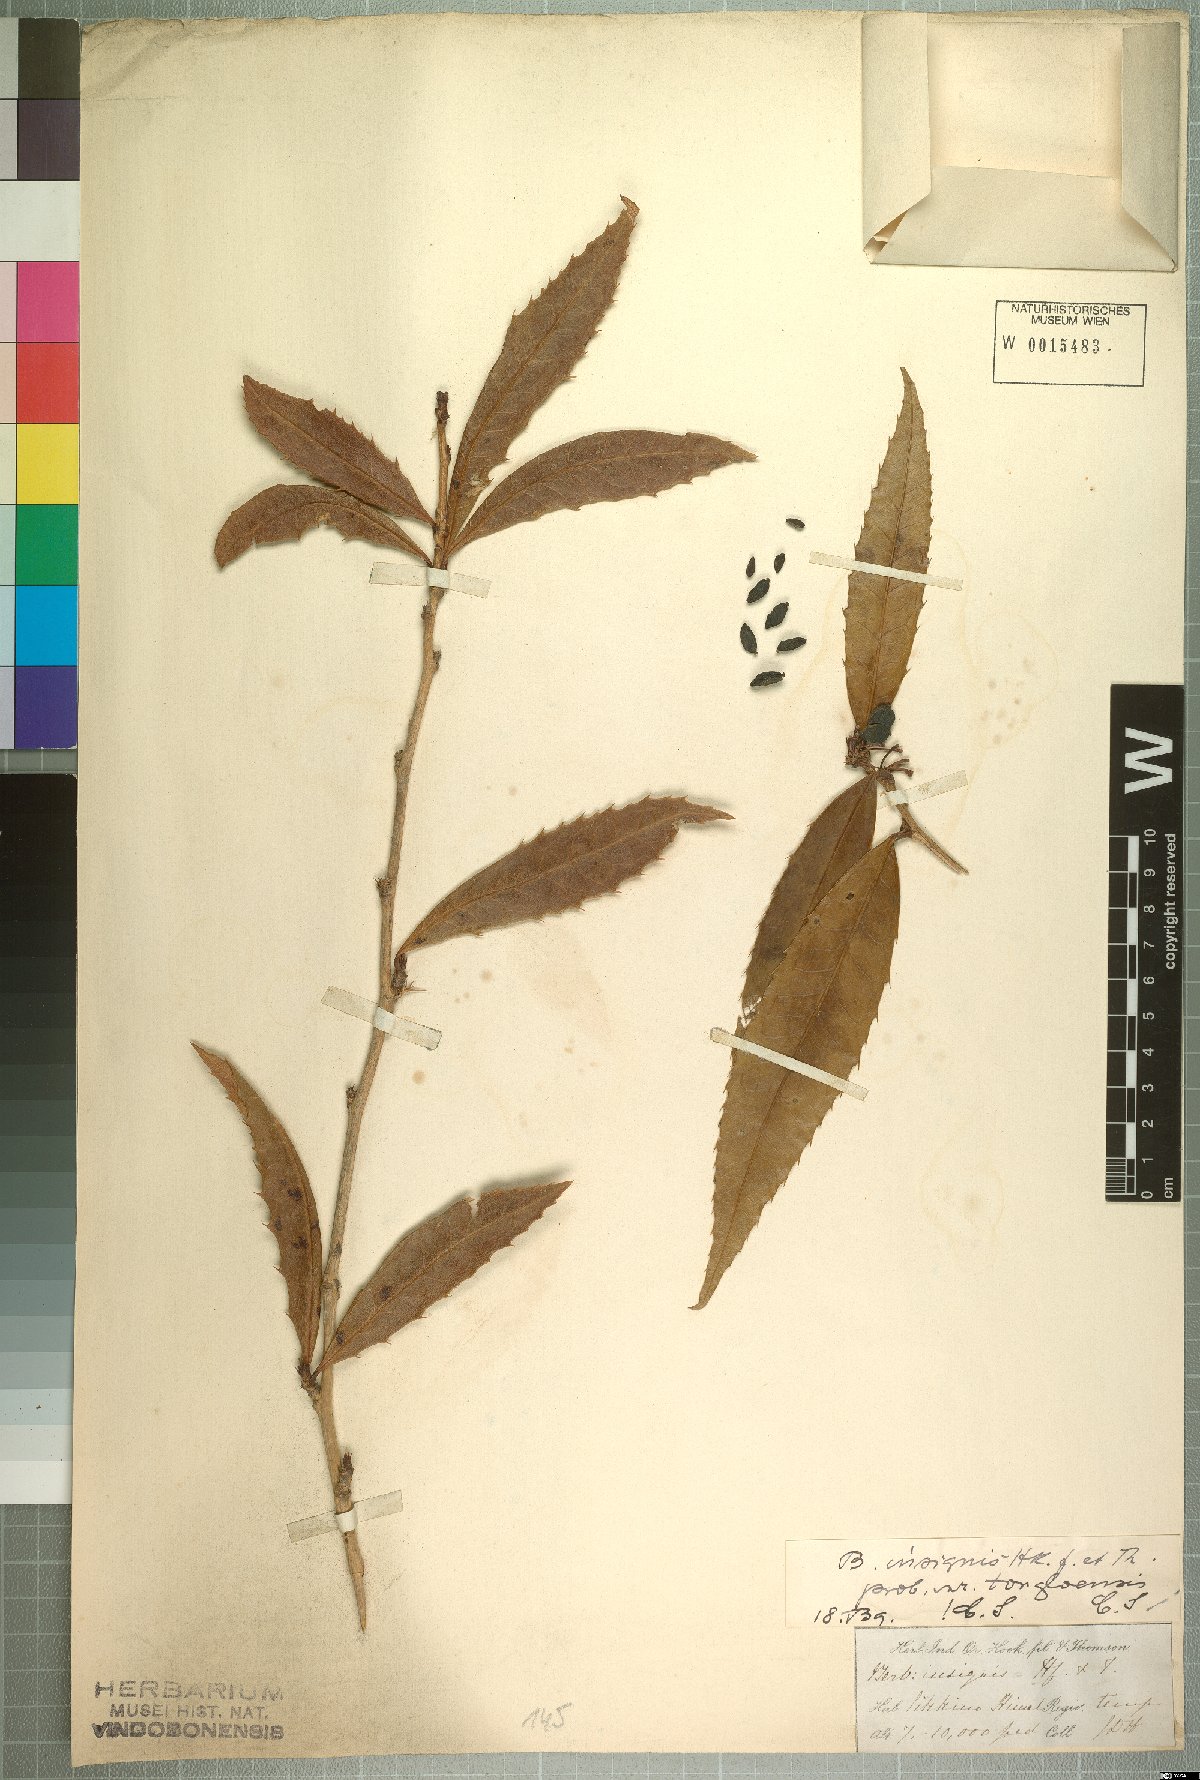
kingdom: Plantae
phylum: Tracheophyta
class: Magnoliopsida
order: Ranunculales
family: Berberidaceae
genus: Berberis
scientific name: Berberis insignis
